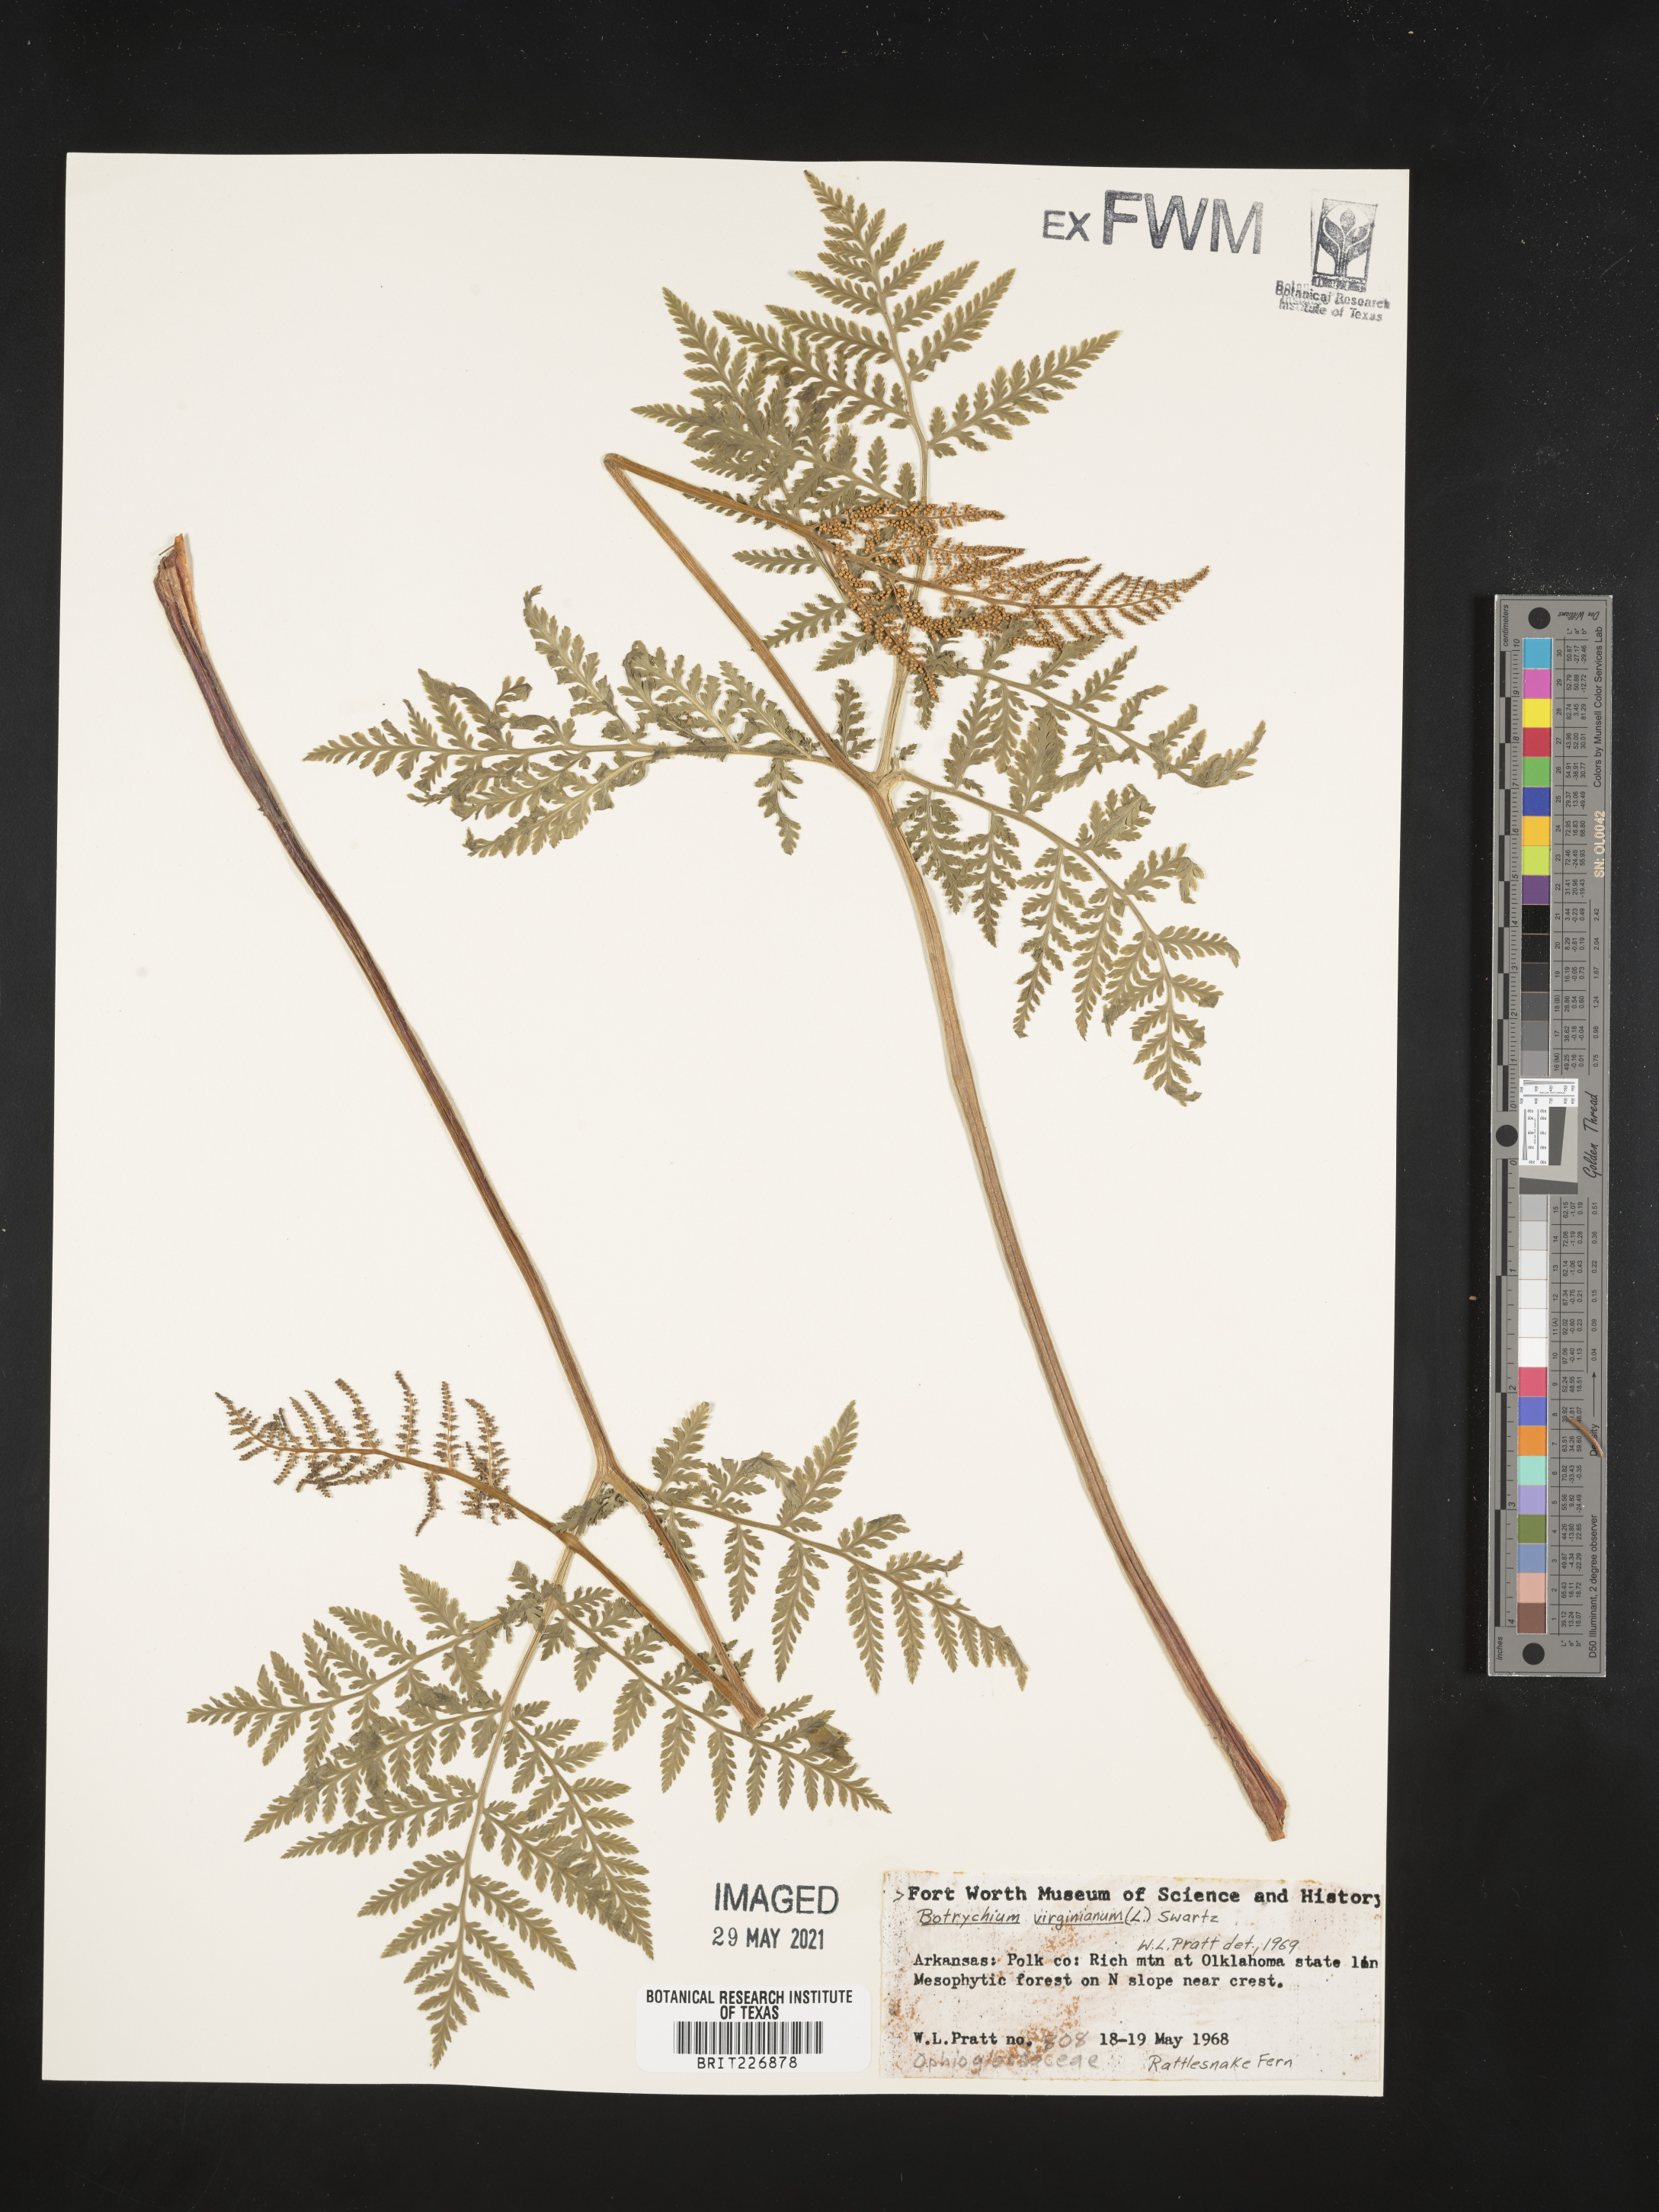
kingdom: Plantae
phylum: Tracheophyta
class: Polypodiopsida
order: Ophioglossales
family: Ophioglossaceae
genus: Botrypus
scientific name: Botrypus virginianus
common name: Common grapefern
